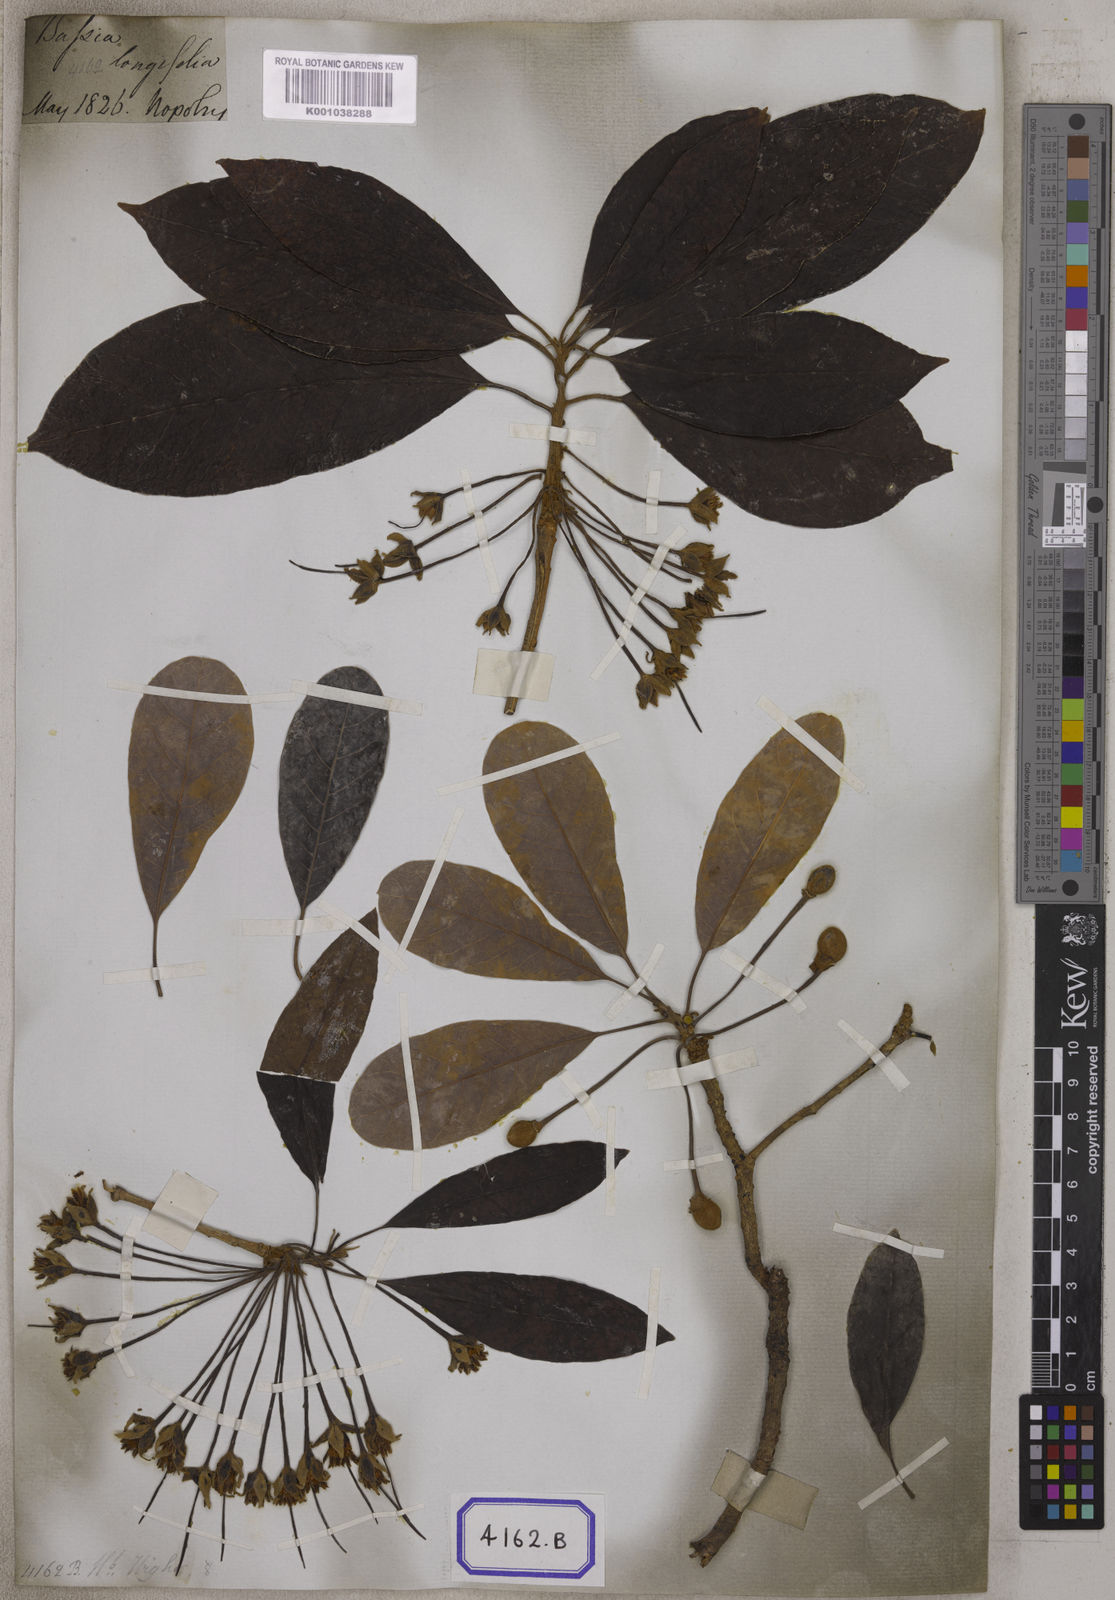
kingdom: Plantae
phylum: Tracheophyta
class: Magnoliopsida
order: Ericales
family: Sapotaceae
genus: Madhuca
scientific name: Madhuca longifolia
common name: Mowra-buttertree
